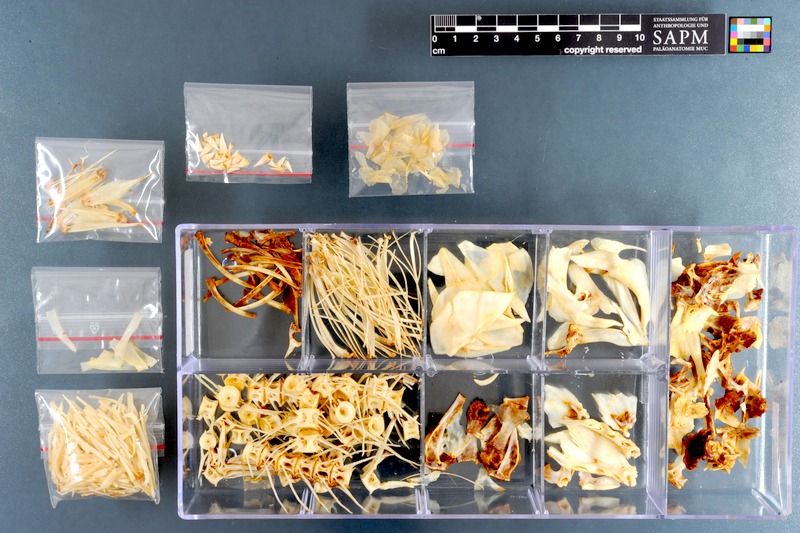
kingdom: Animalia
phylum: Chordata
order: Characiformes
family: Alestidae
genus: Hydrocynus
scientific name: Hydrocynus forskahlii
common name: Elongate tigerfish
